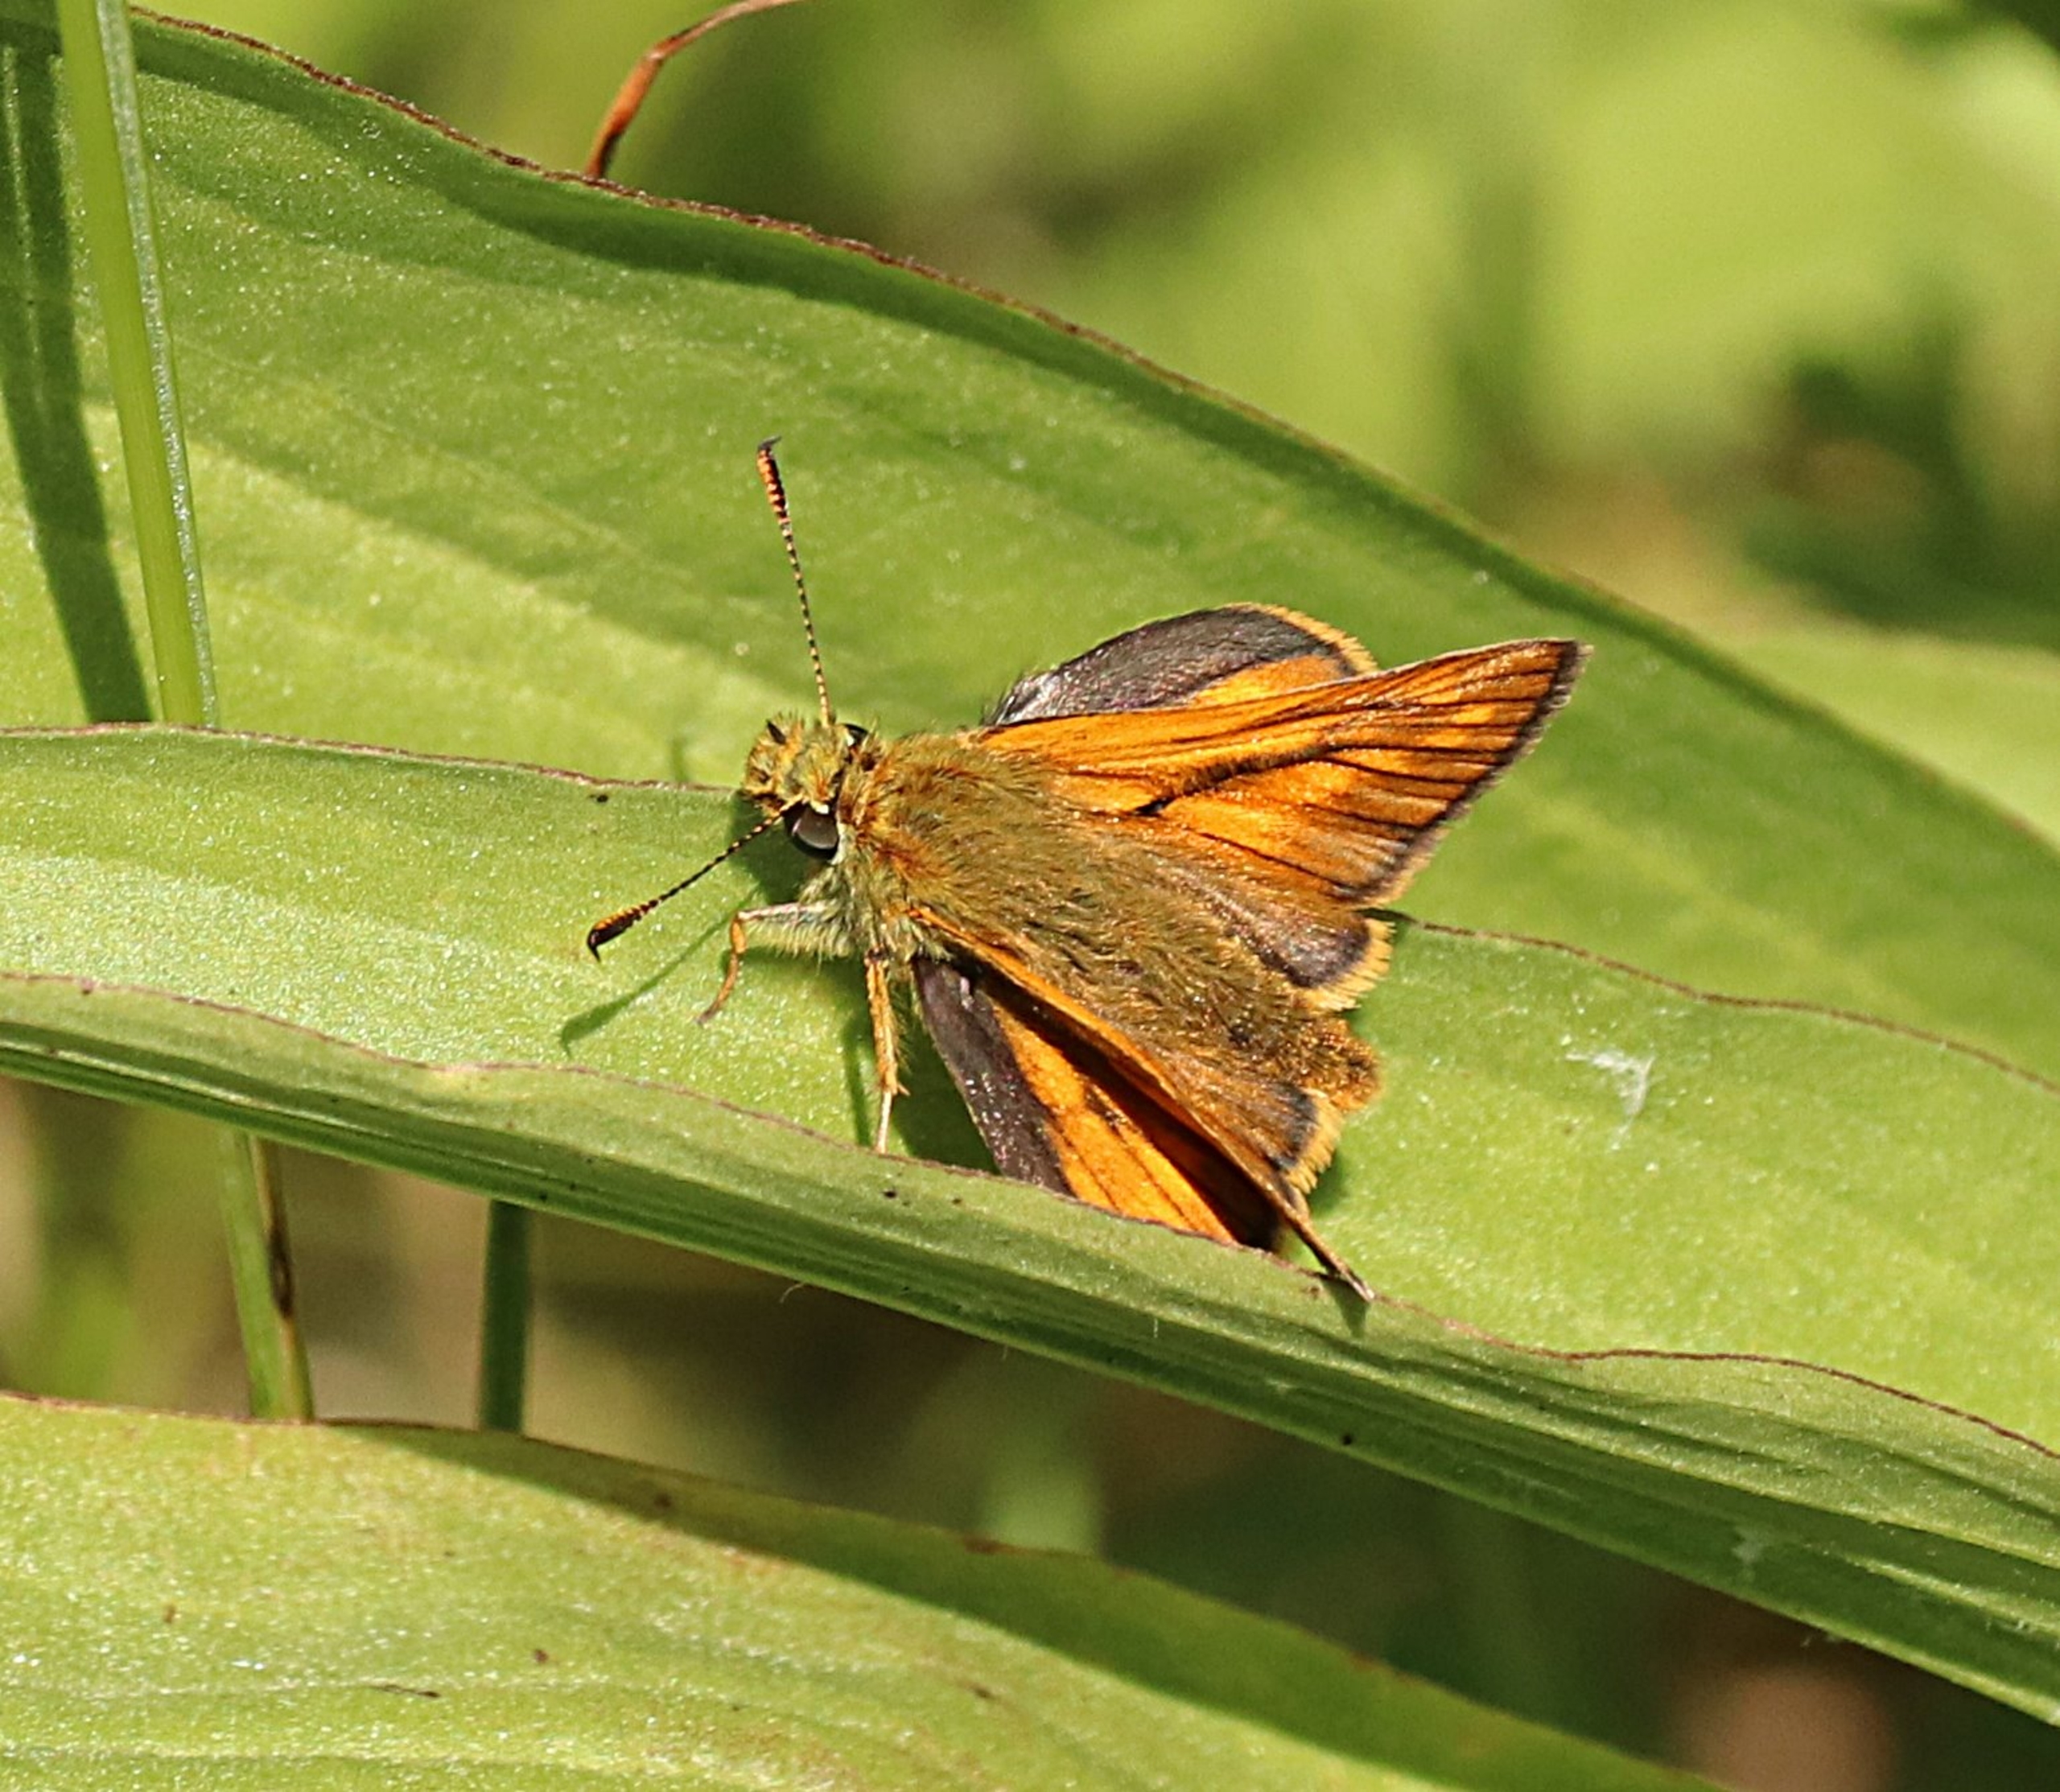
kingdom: Animalia
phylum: Arthropoda
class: Insecta
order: Lepidoptera
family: Hesperiidae
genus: Ochlodes
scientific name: Ochlodes venata
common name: Stor bredpande
